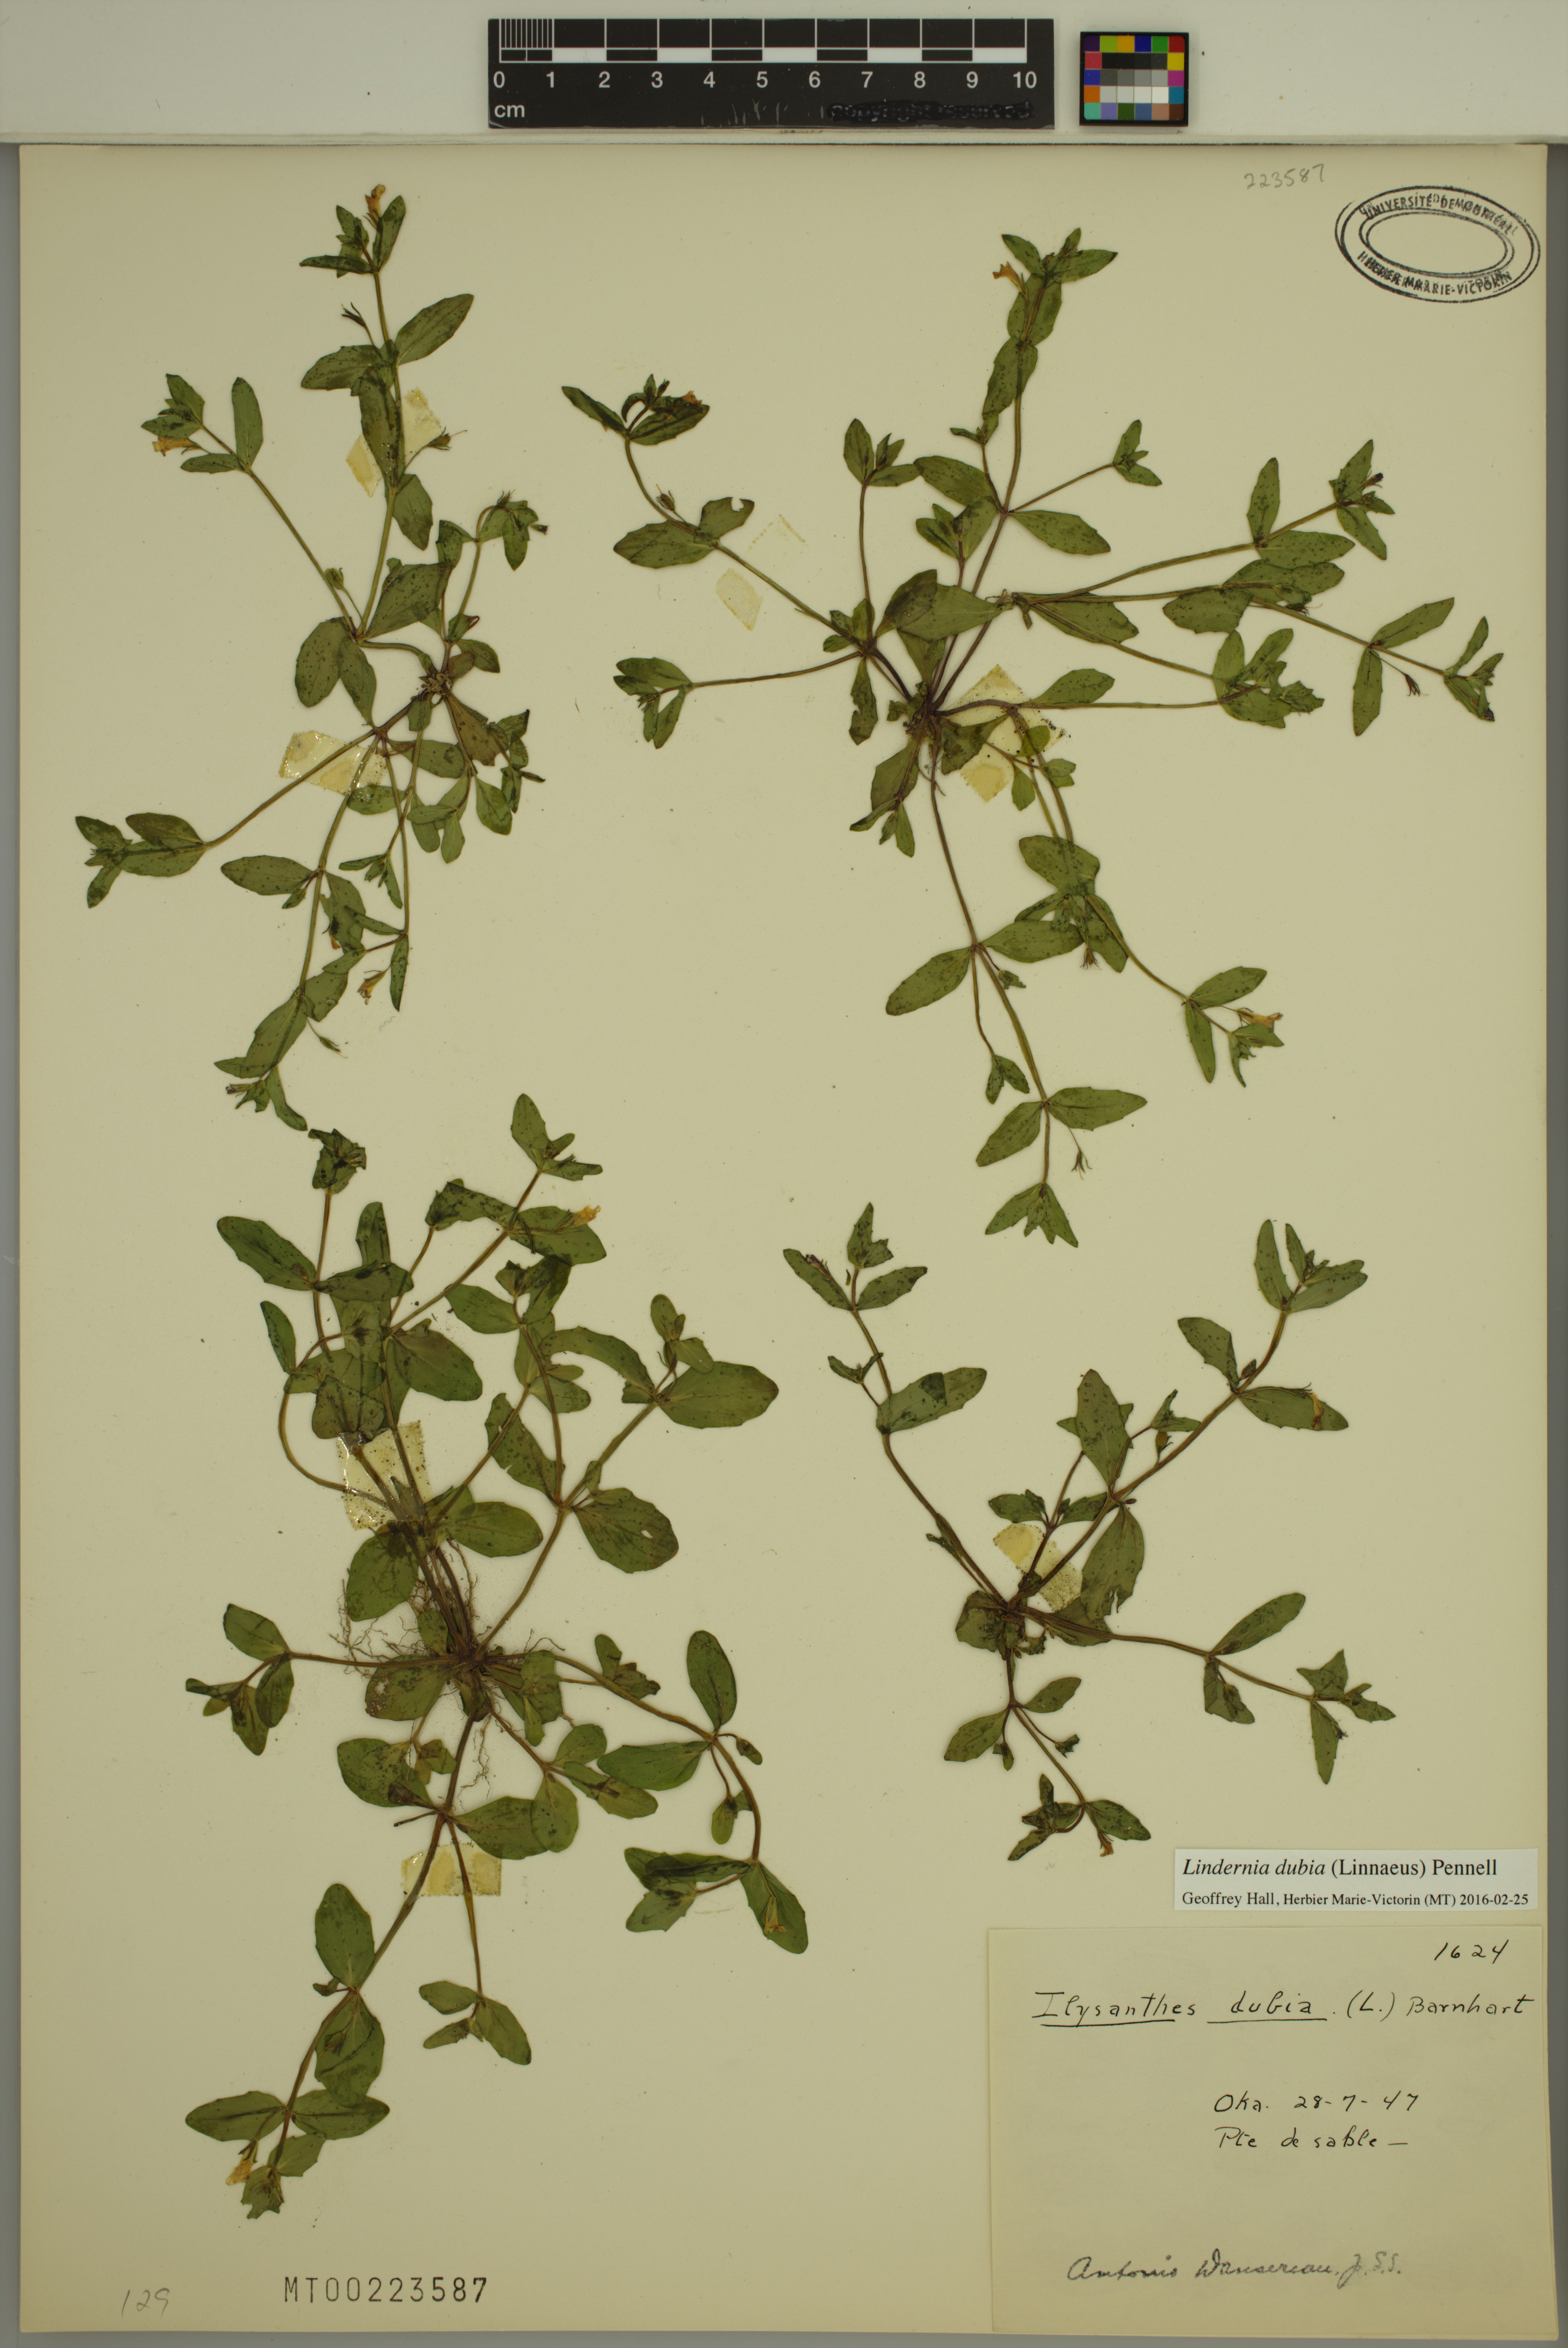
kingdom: Plantae
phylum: Tracheophyta
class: Magnoliopsida
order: Lamiales
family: Linderniaceae
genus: Lindernia
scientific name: Lindernia dubia
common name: Annual false pimpernel
